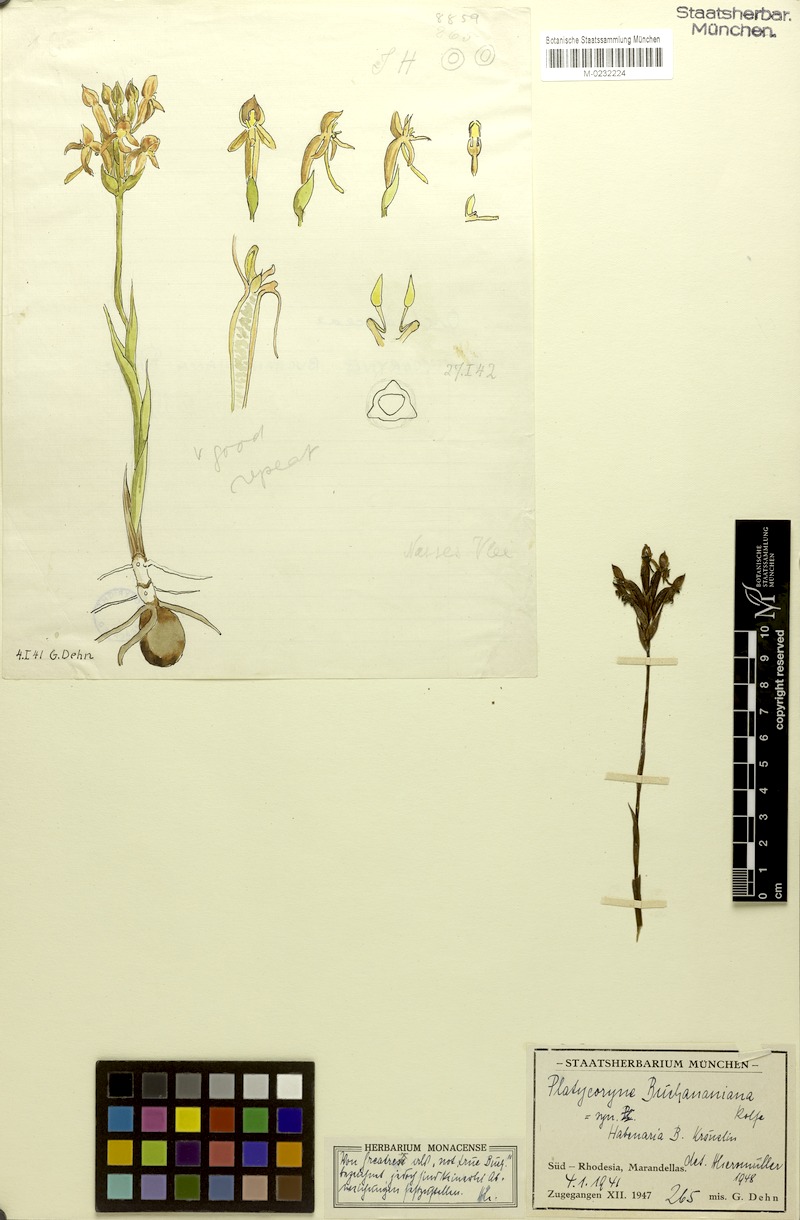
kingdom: Plantae
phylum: Tracheophyta
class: Liliopsida
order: Asparagales
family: Orchidaceae
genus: Platycoryne
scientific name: Platycoryne buchananiana
